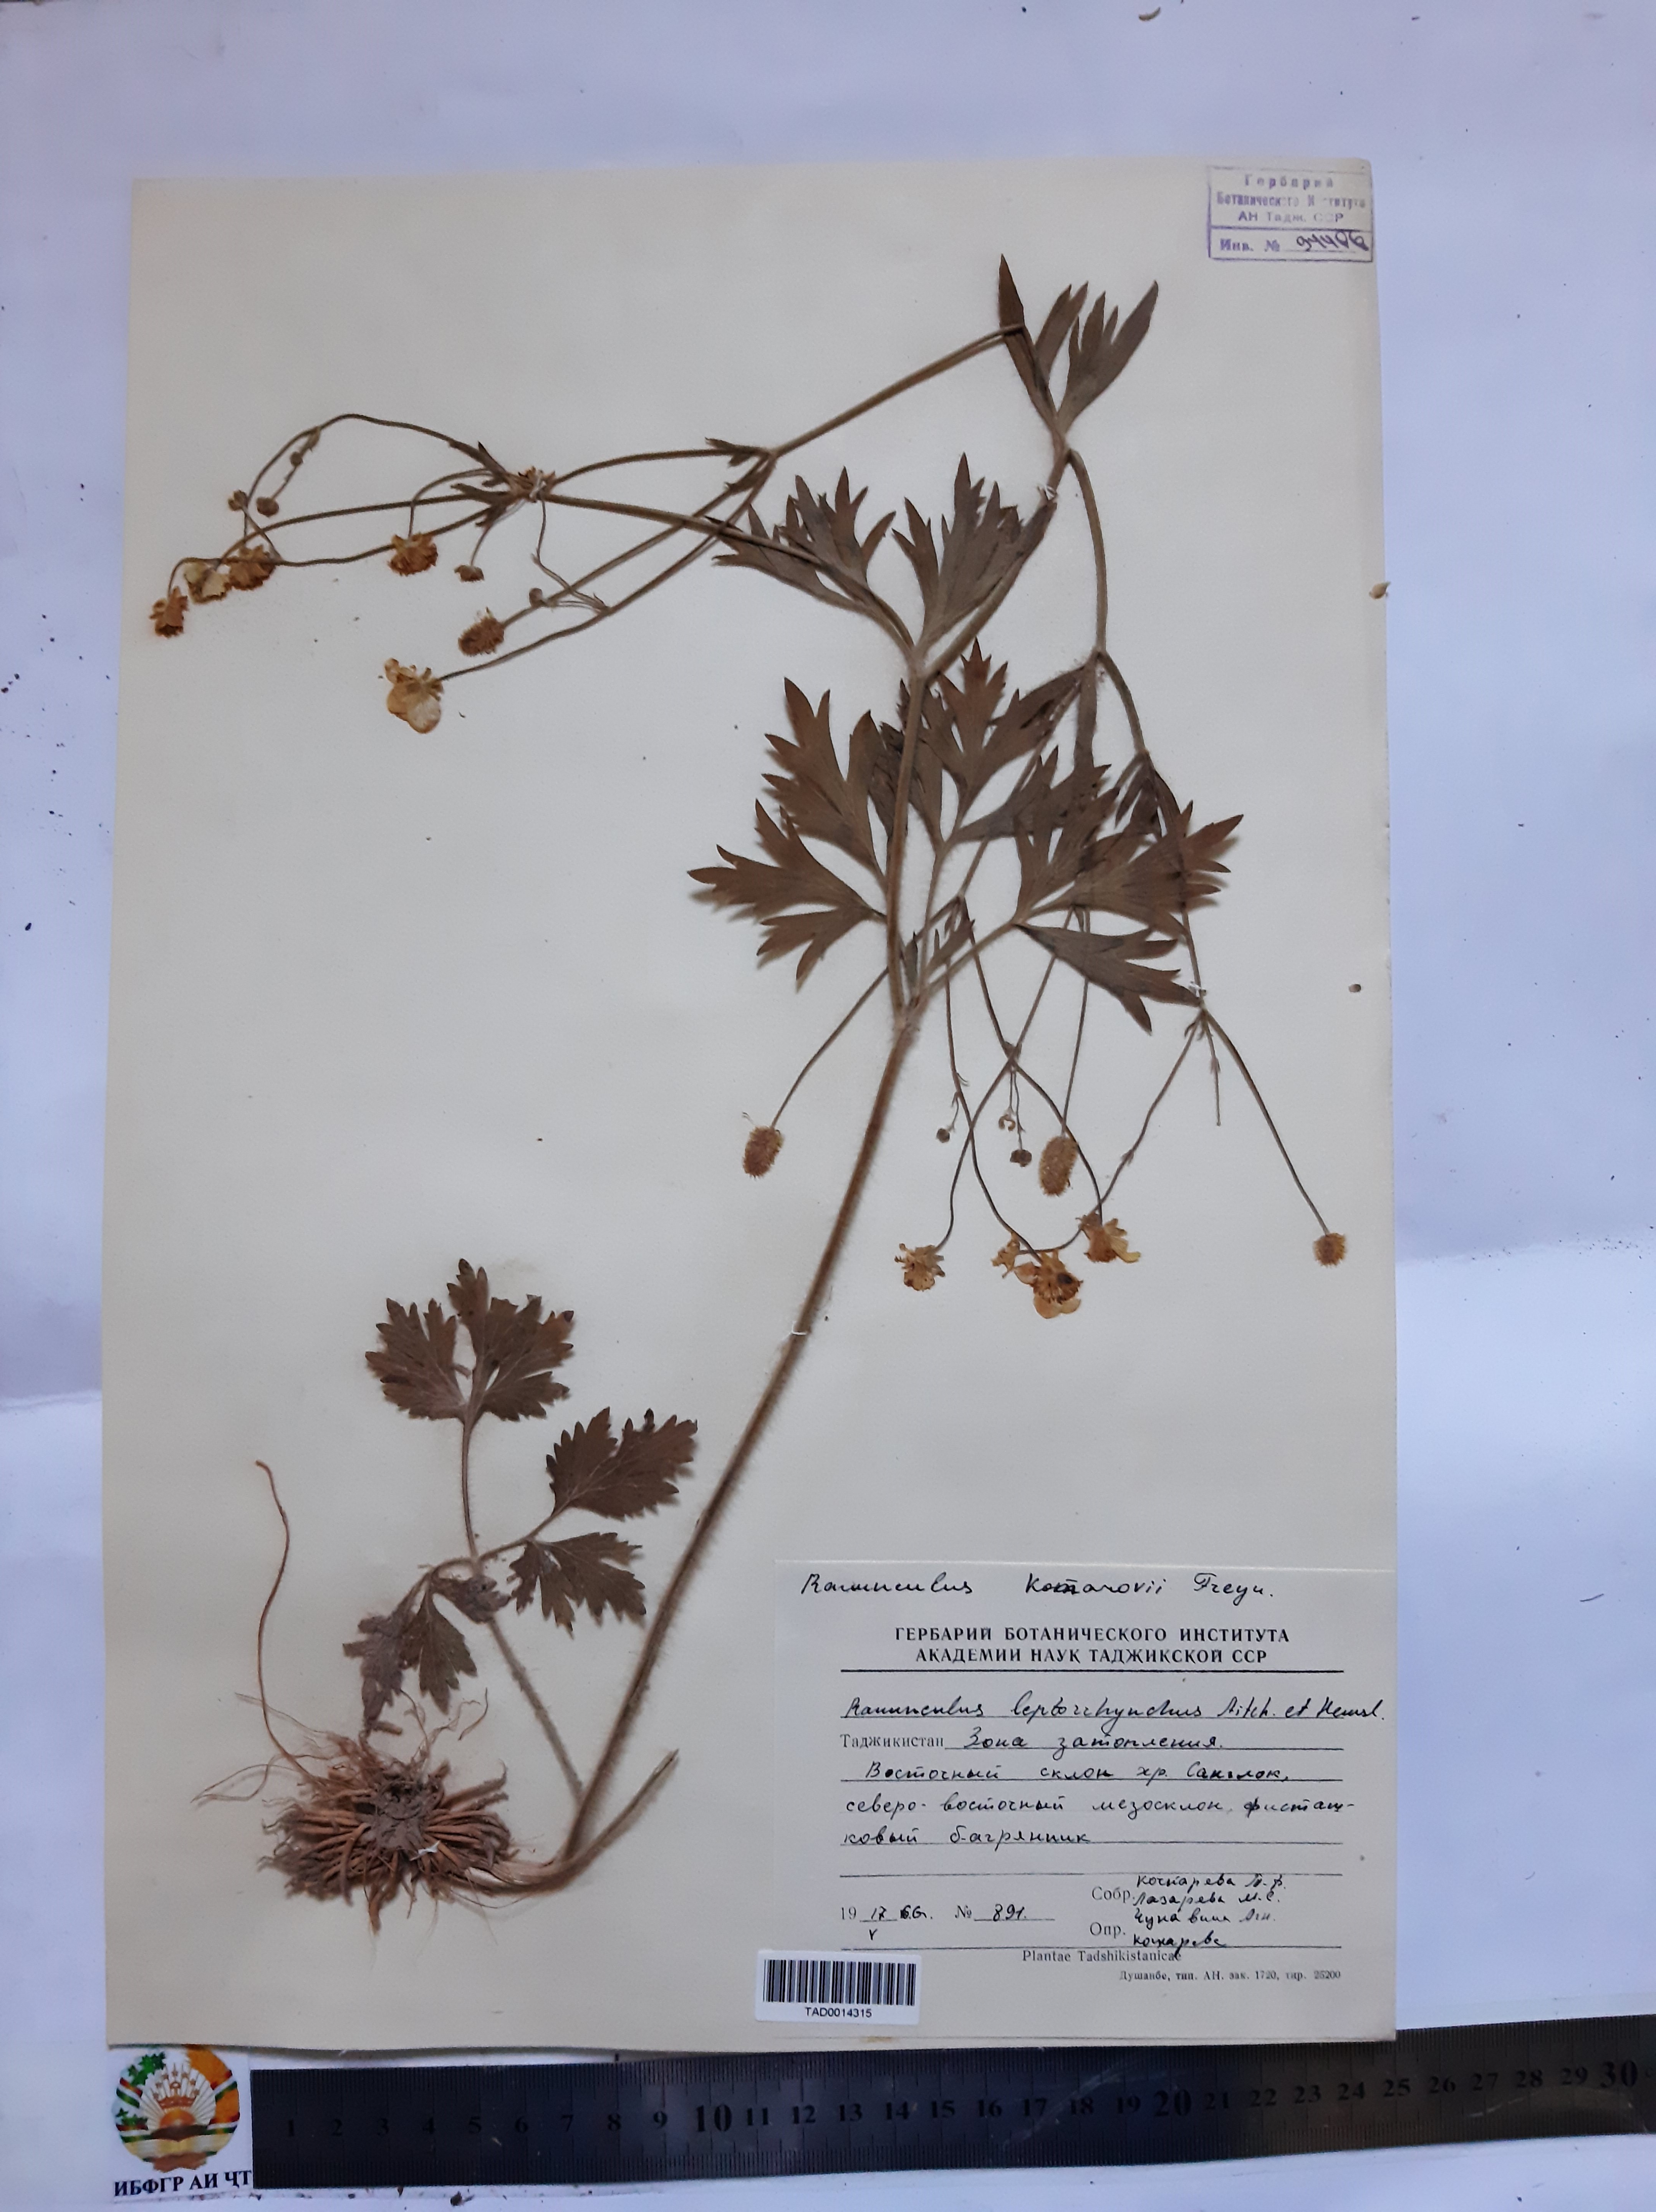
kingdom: Plantae
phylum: Tracheophyta
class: Magnoliopsida
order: Ranunculales
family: Ranunculaceae
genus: Ranunculus
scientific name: Ranunculus leptorrhynchus
